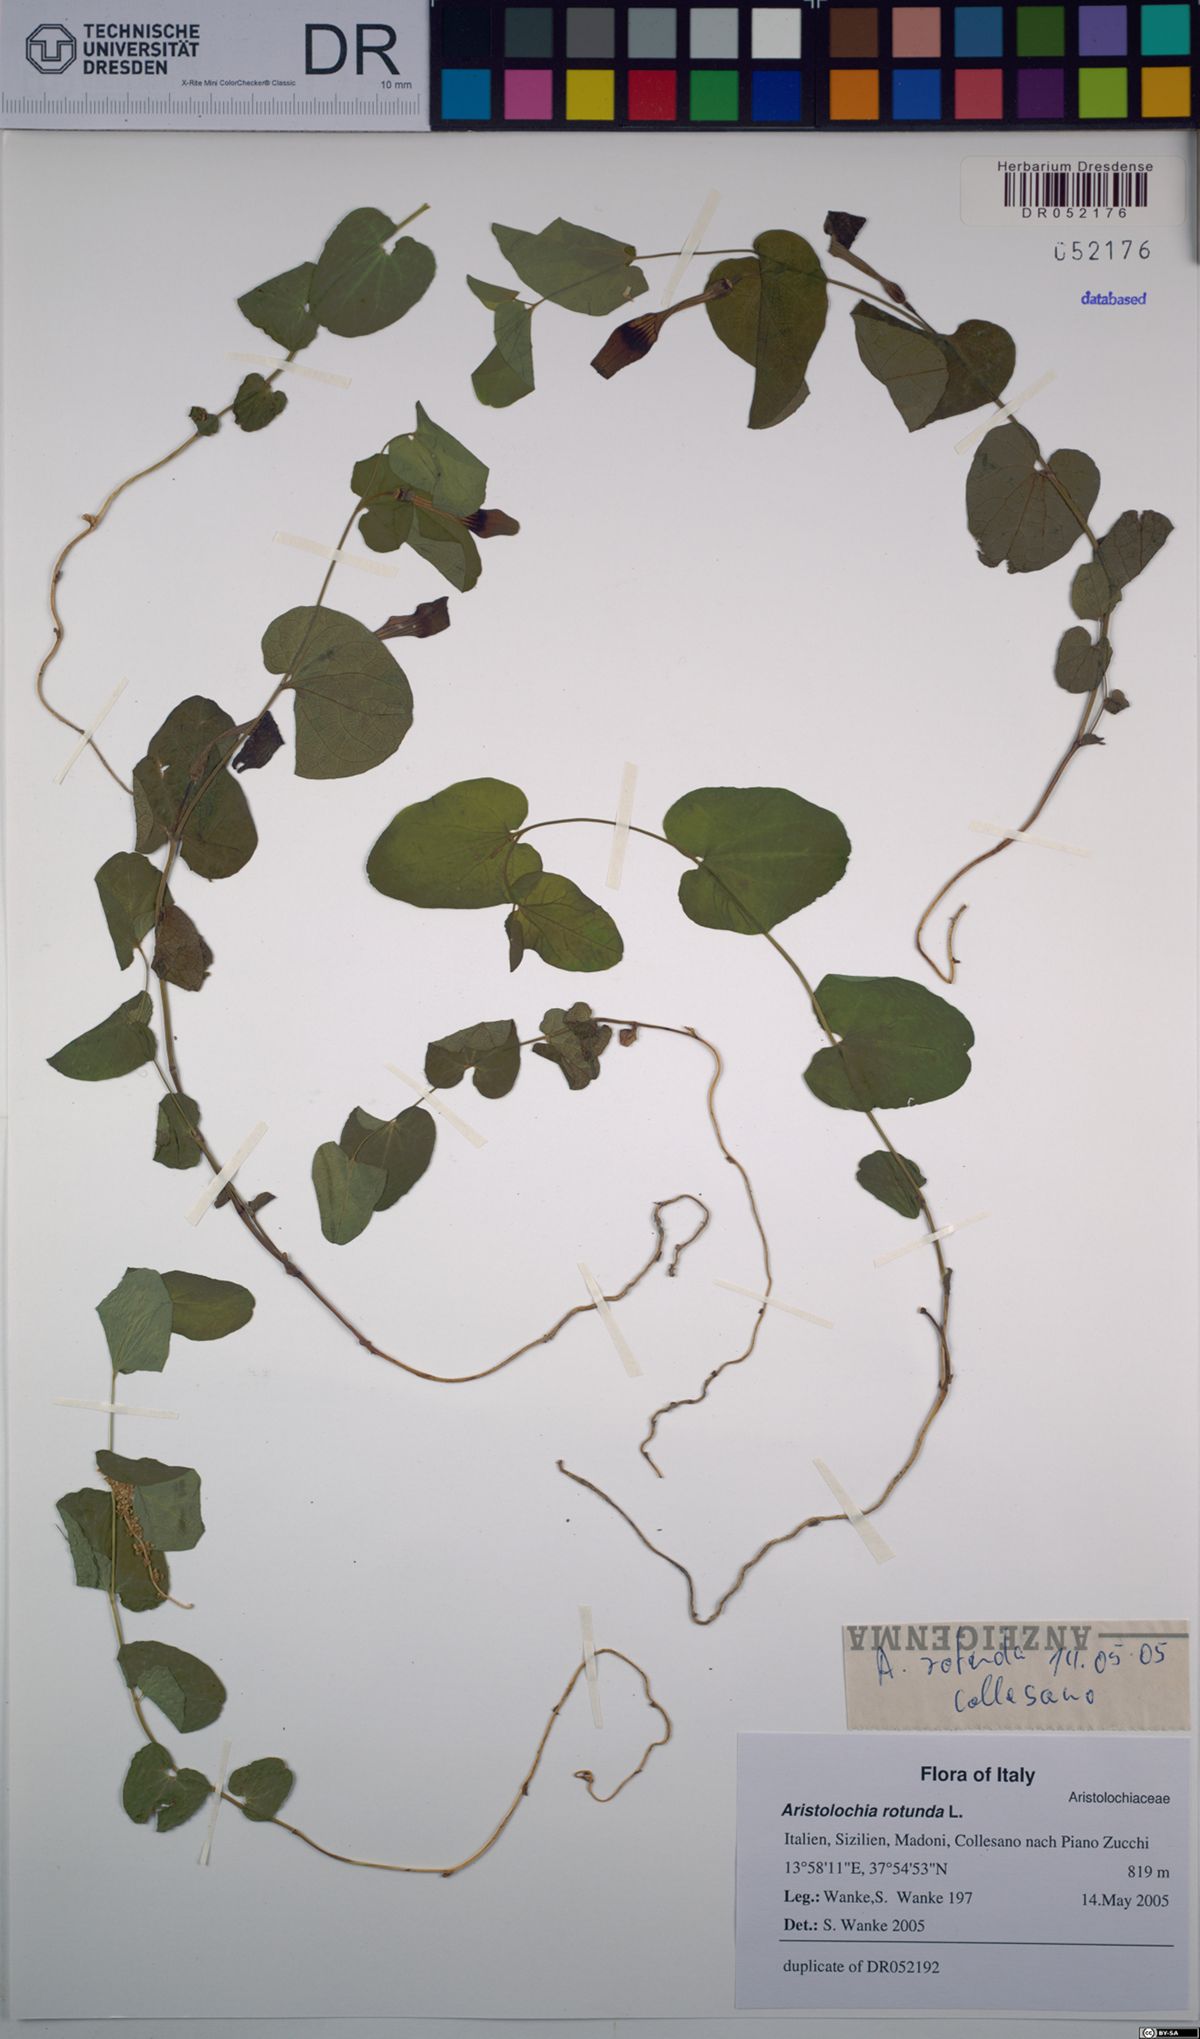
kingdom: Plantae
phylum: Tracheophyta
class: Magnoliopsida
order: Piperales
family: Aristolochiaceae
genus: Aristolochia
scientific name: Aristolochia rotunda
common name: Smearwort
